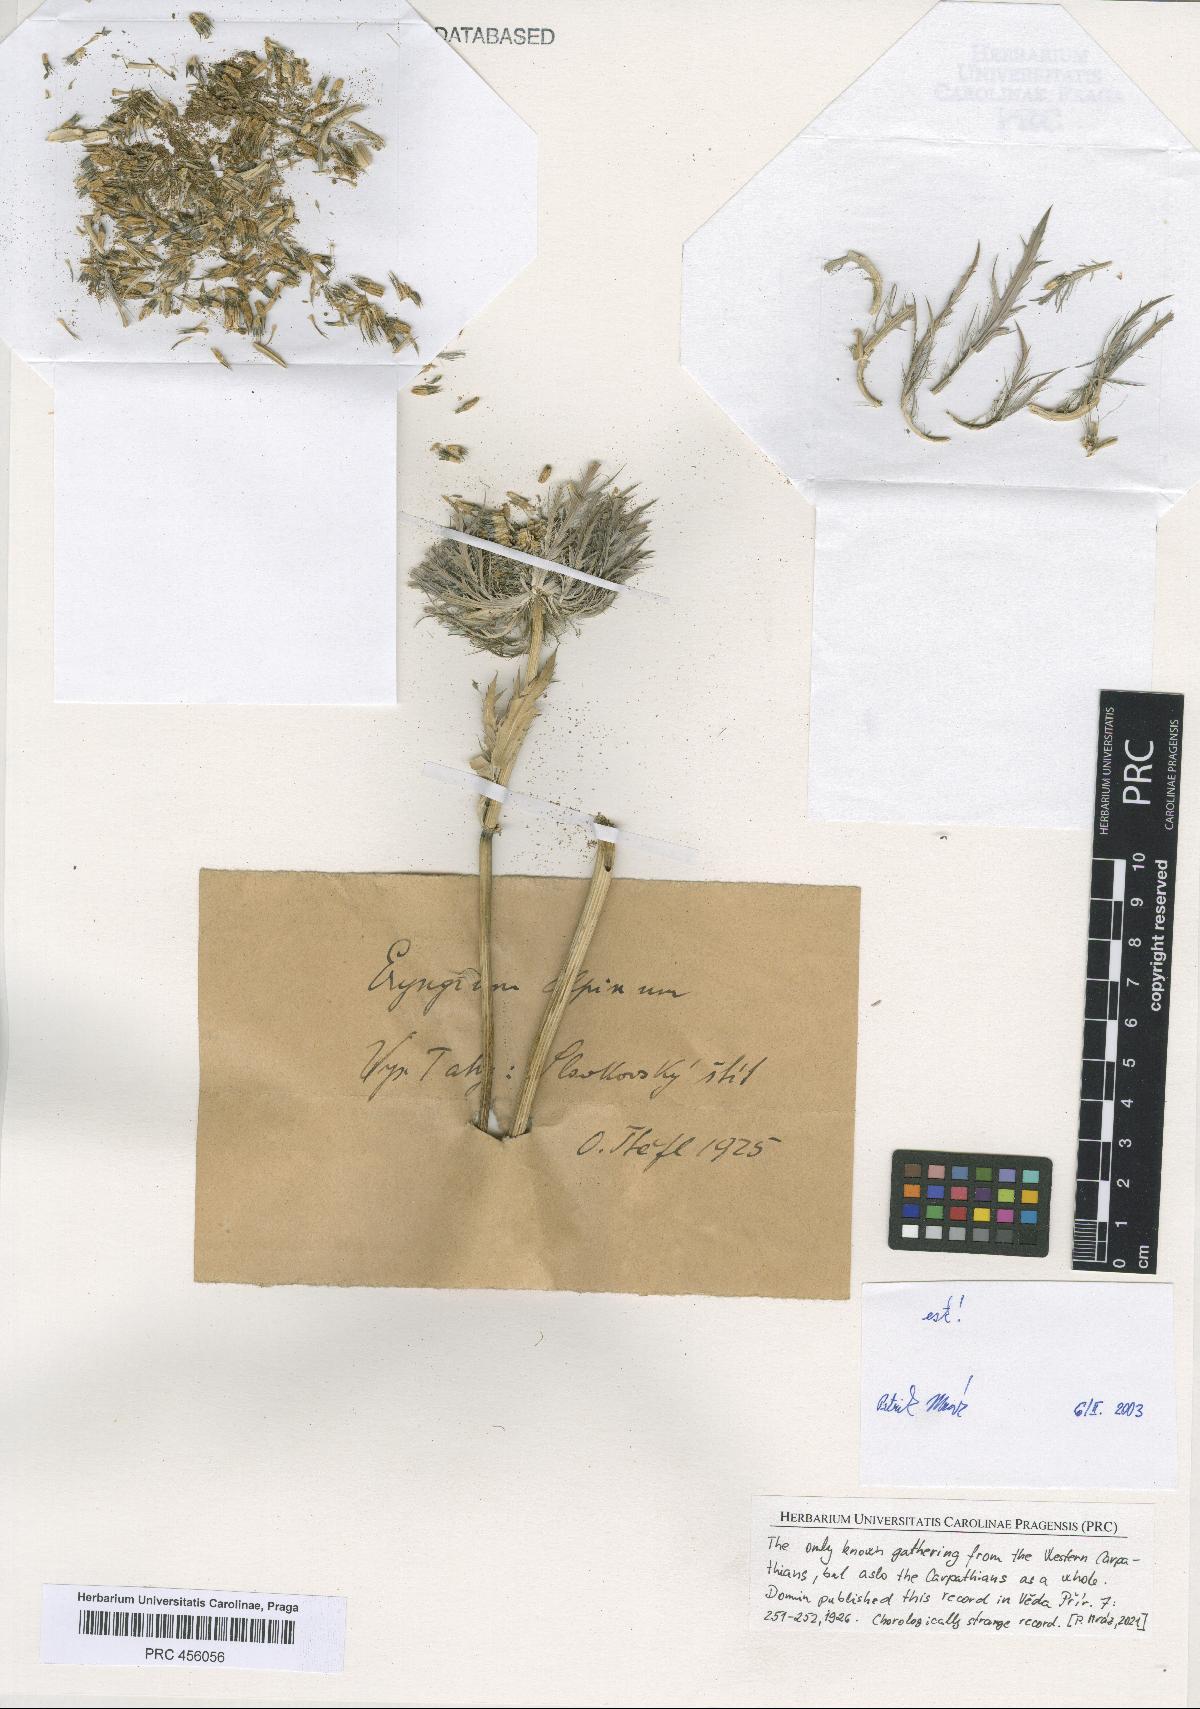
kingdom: Plantae
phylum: Tracheophyta
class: Magnoliopsida
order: Apiales
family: Apiaceae
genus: Eryngium
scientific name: Eryngium alpinum
